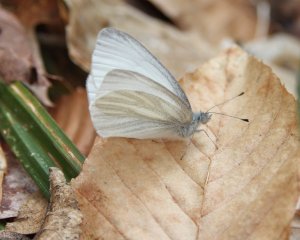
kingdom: Animalia
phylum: Arthropoda
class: Insecta
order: Lepidoptera
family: Pieridae
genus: Pieris
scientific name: Pieris virginiensis
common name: West Virginia White
